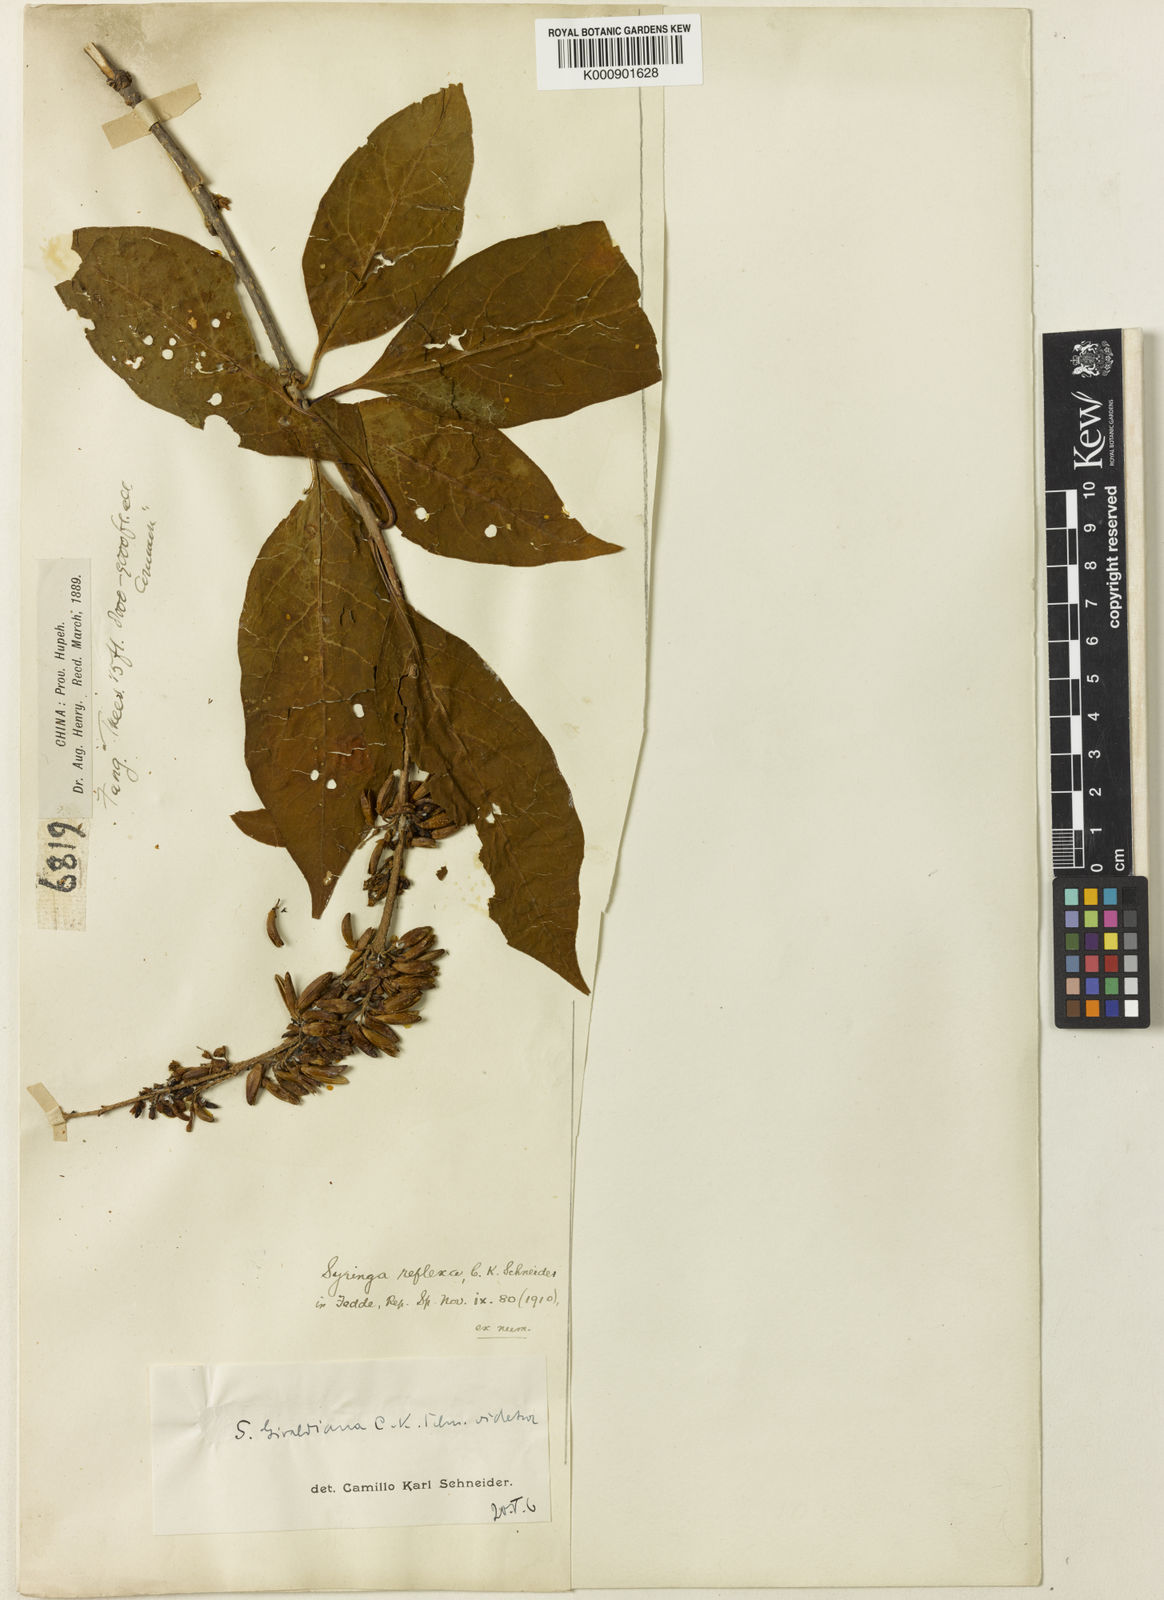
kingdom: Plantae
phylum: Tracheophyta
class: Magnoliopsida
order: Lamiales
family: Oleaceae
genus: Syringa
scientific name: Syringa komarowii
